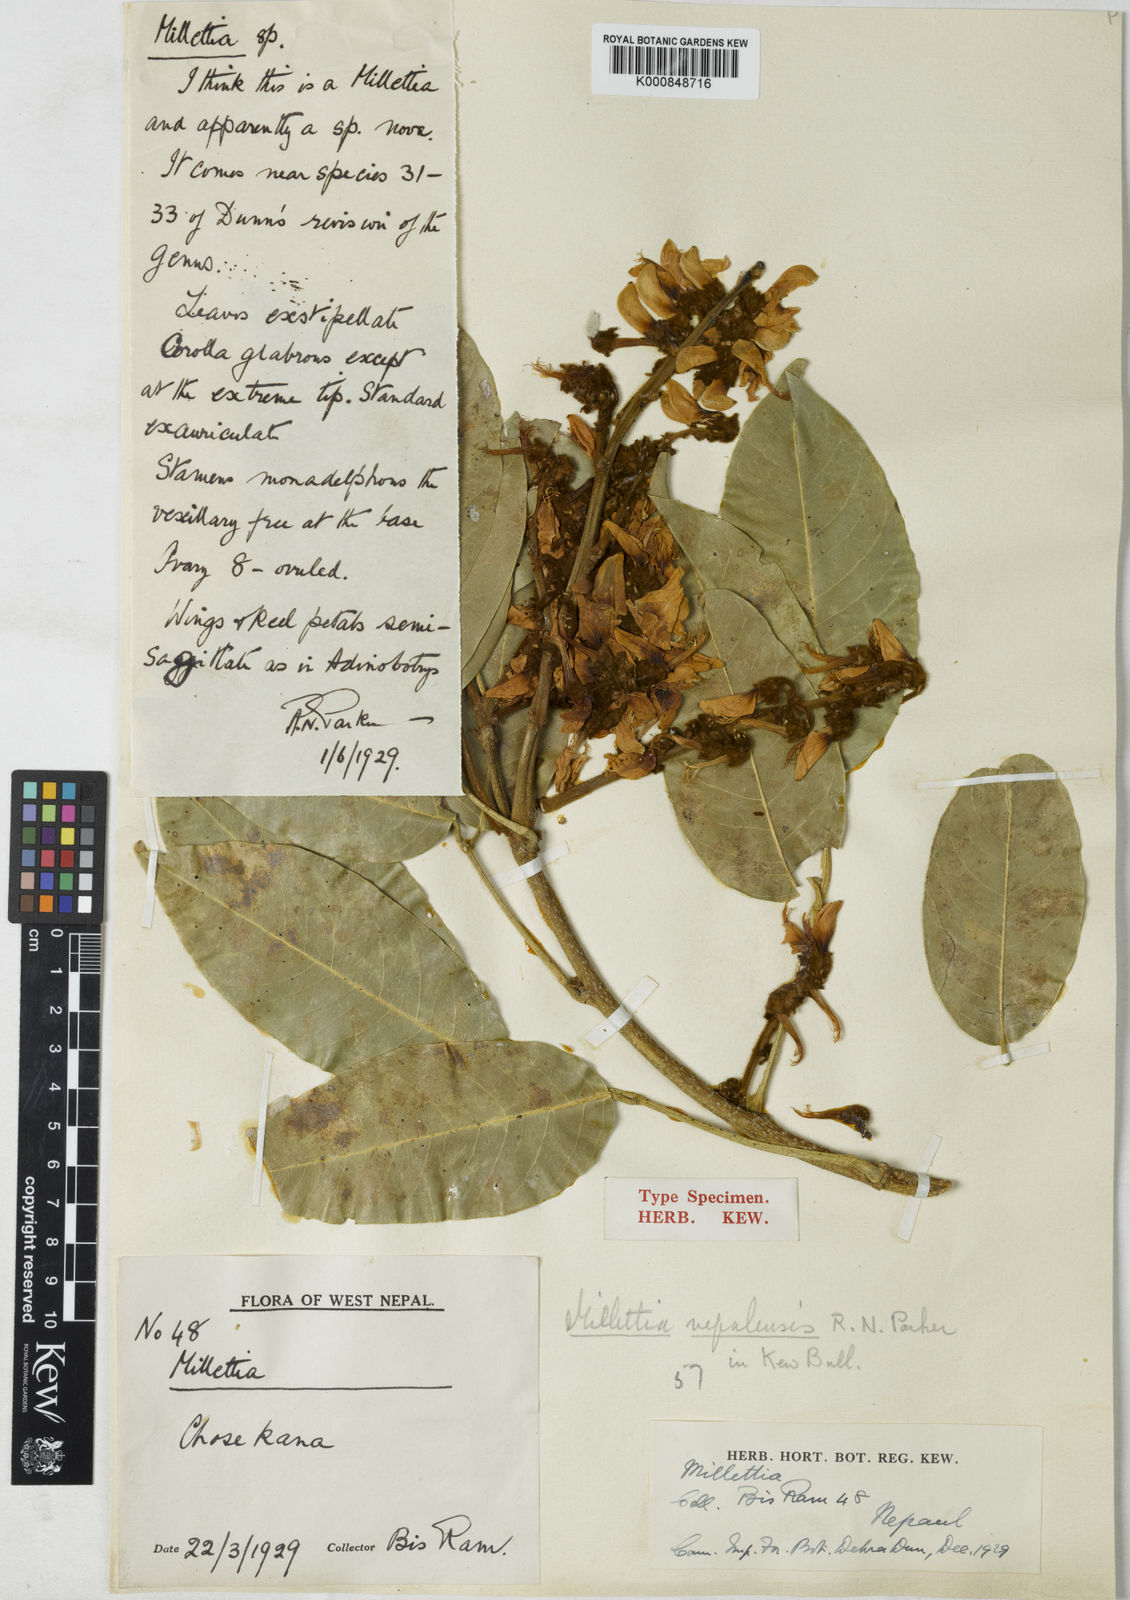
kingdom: Plantae
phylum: Tracheophyta
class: Magnoliopsida
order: Fabales
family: Fabaceae
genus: Millettia
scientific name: Millettia nepalensis
